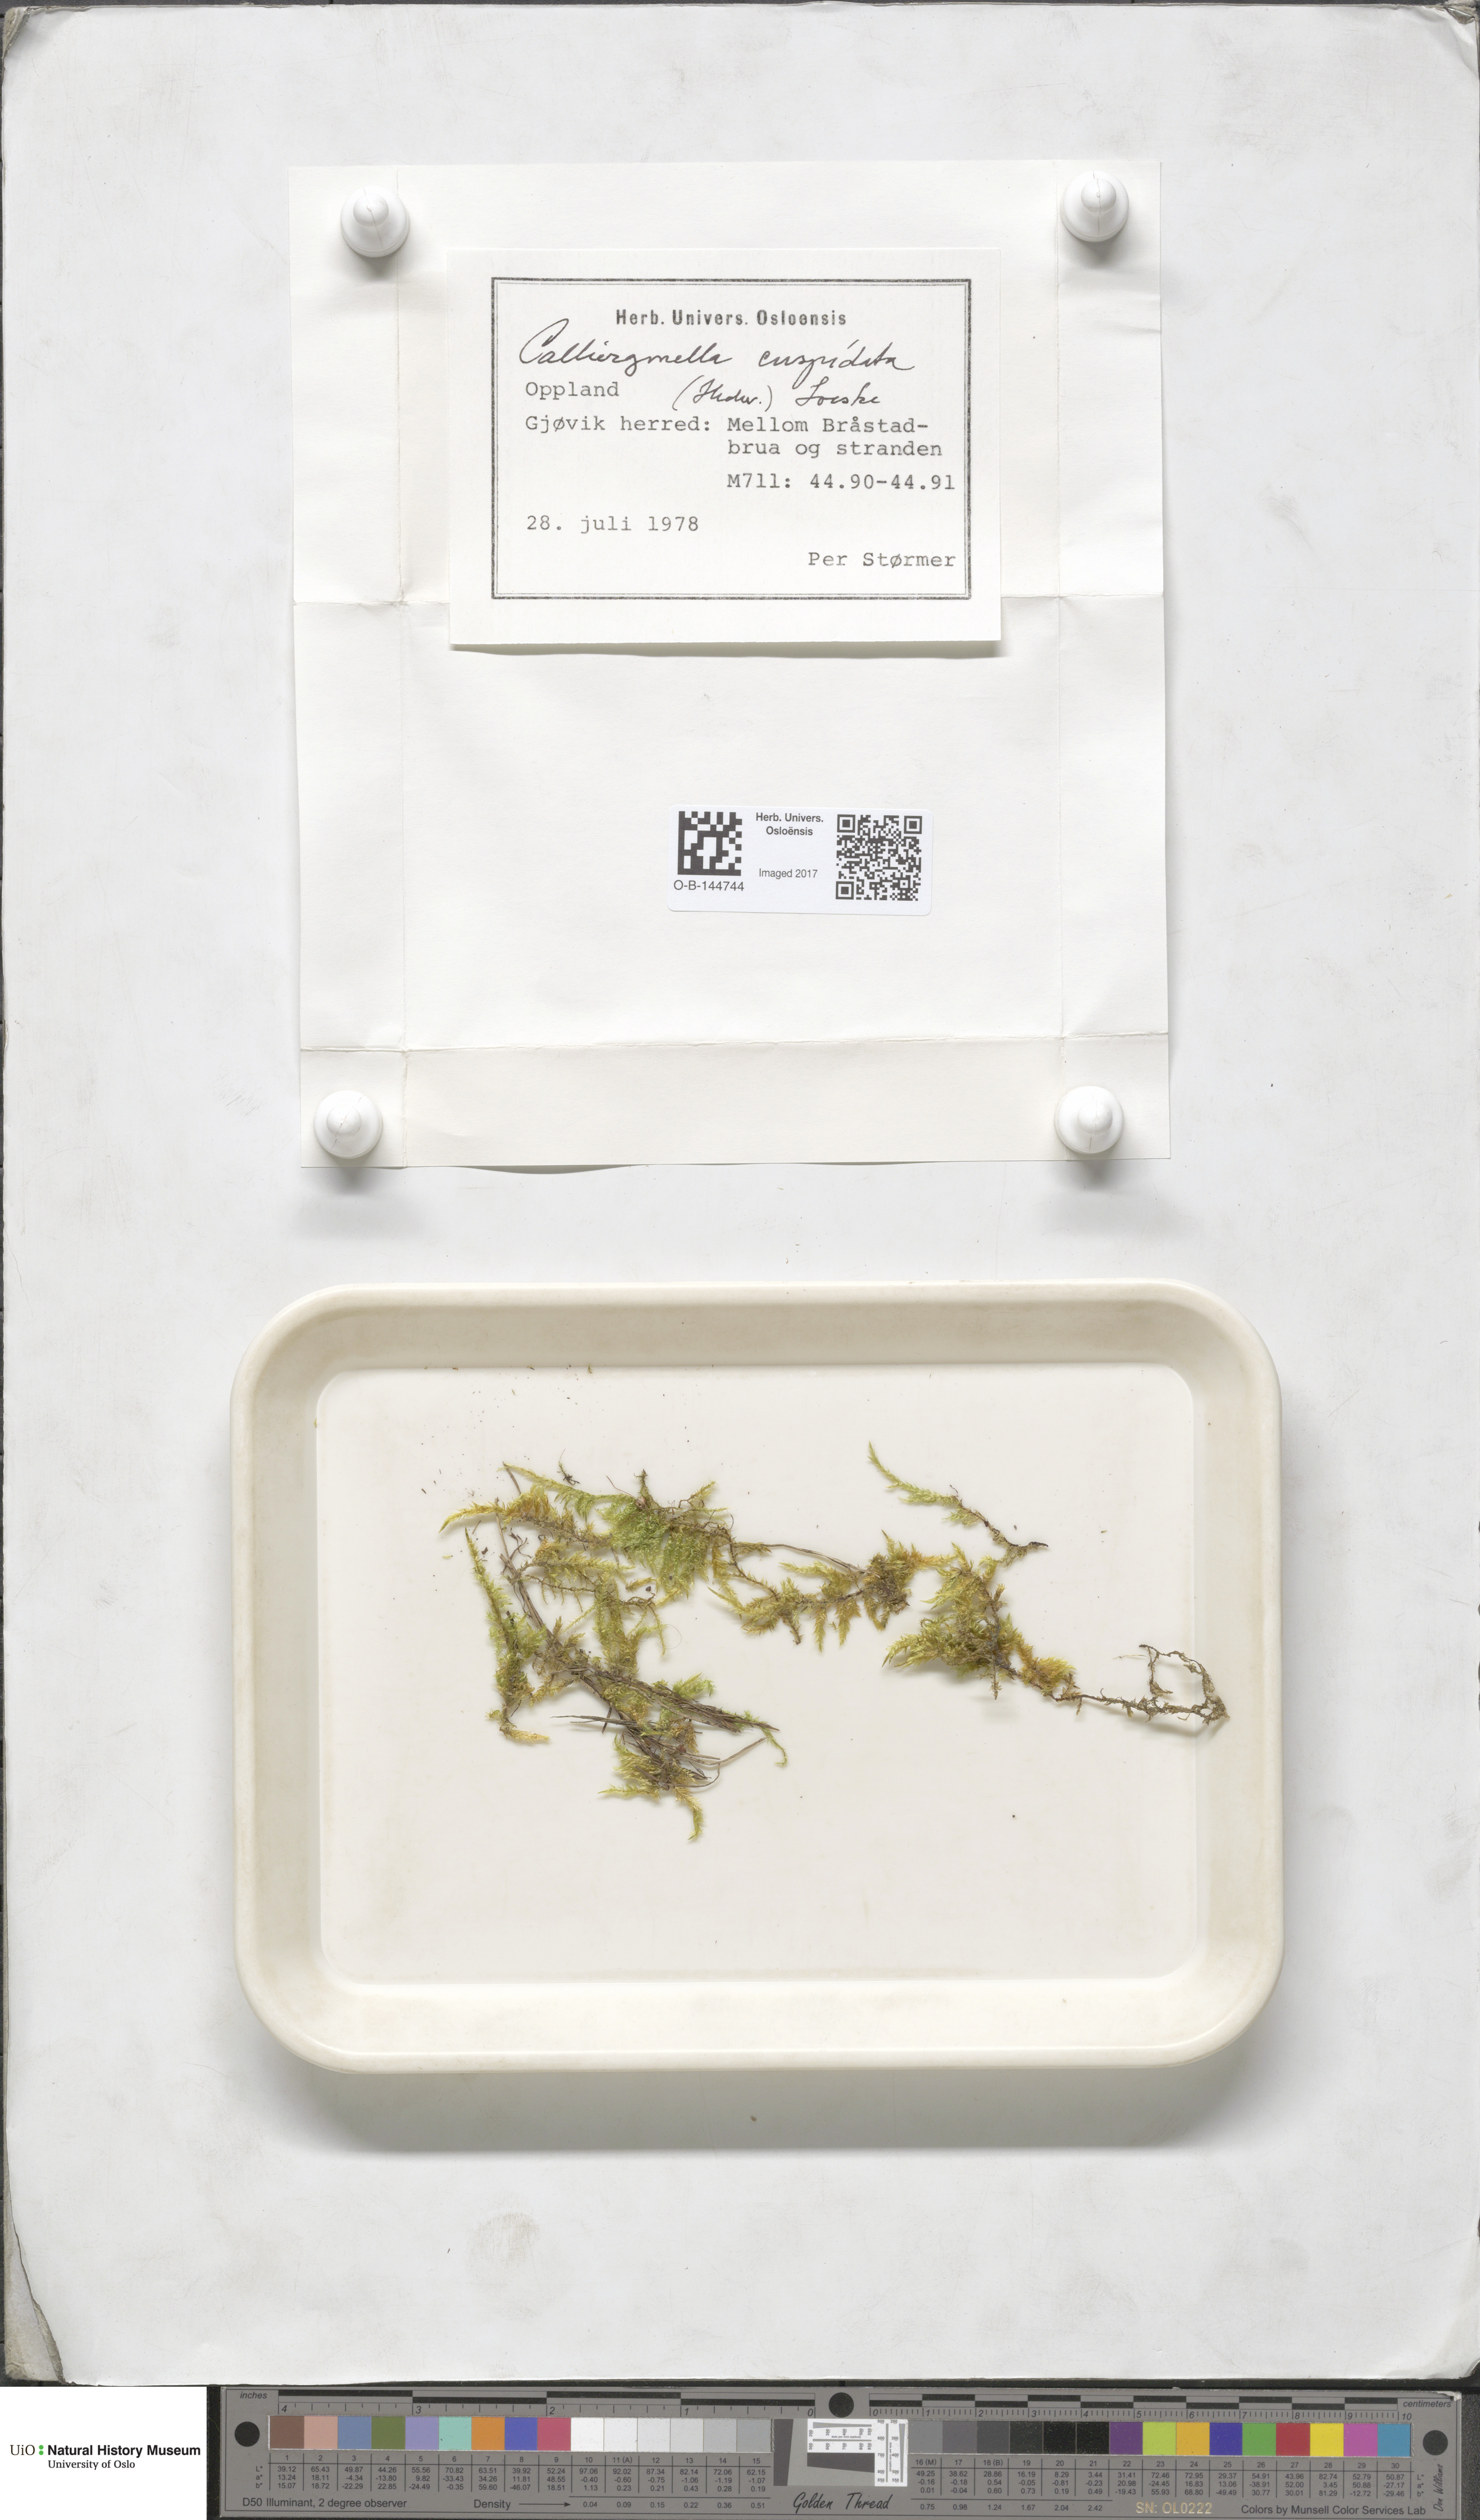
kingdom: Plantae
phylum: Bryophyta
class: Bryopsida
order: Hypnales
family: Pylaisiaceae
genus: Calliergonella
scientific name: Calliergonella cuspidata
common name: Common large wetland moss
